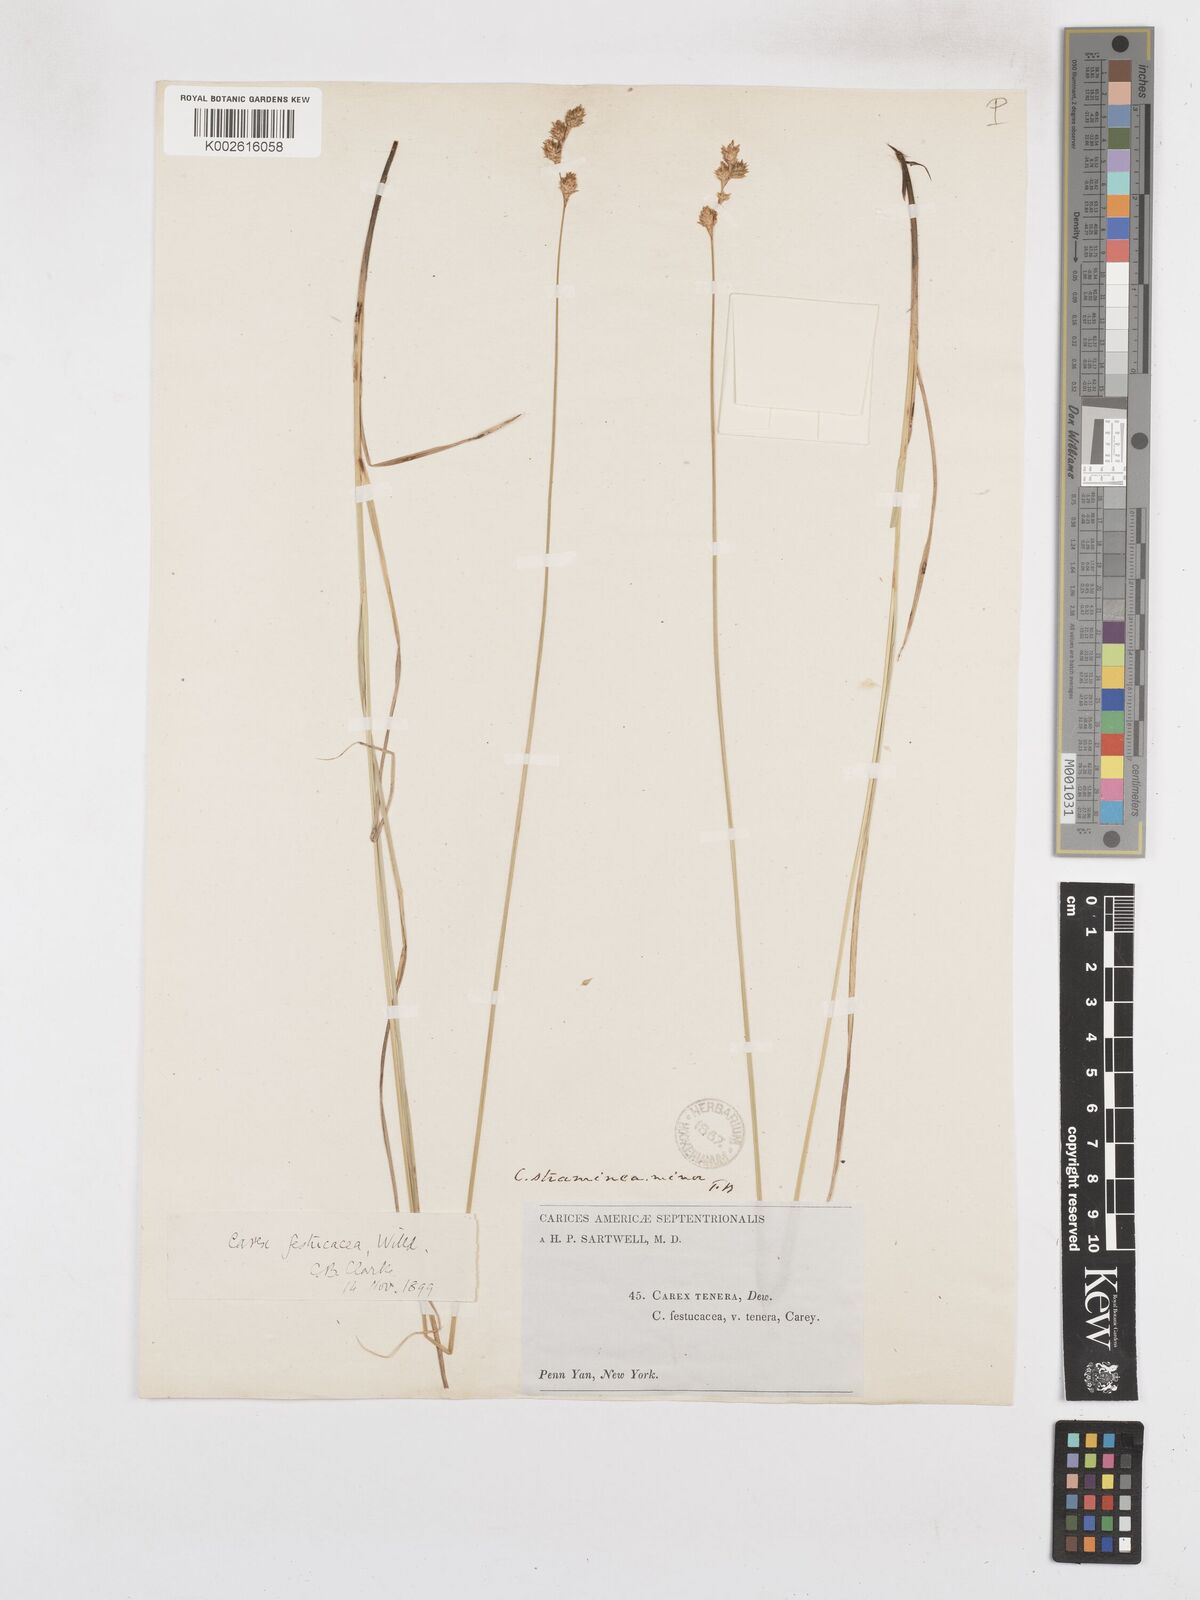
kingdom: Plantae
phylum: Tracheophyta
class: Liliopsida
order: Poales
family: Cyperaceae
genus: Carex
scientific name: Carex festucacea
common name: Fescue oval sedge
